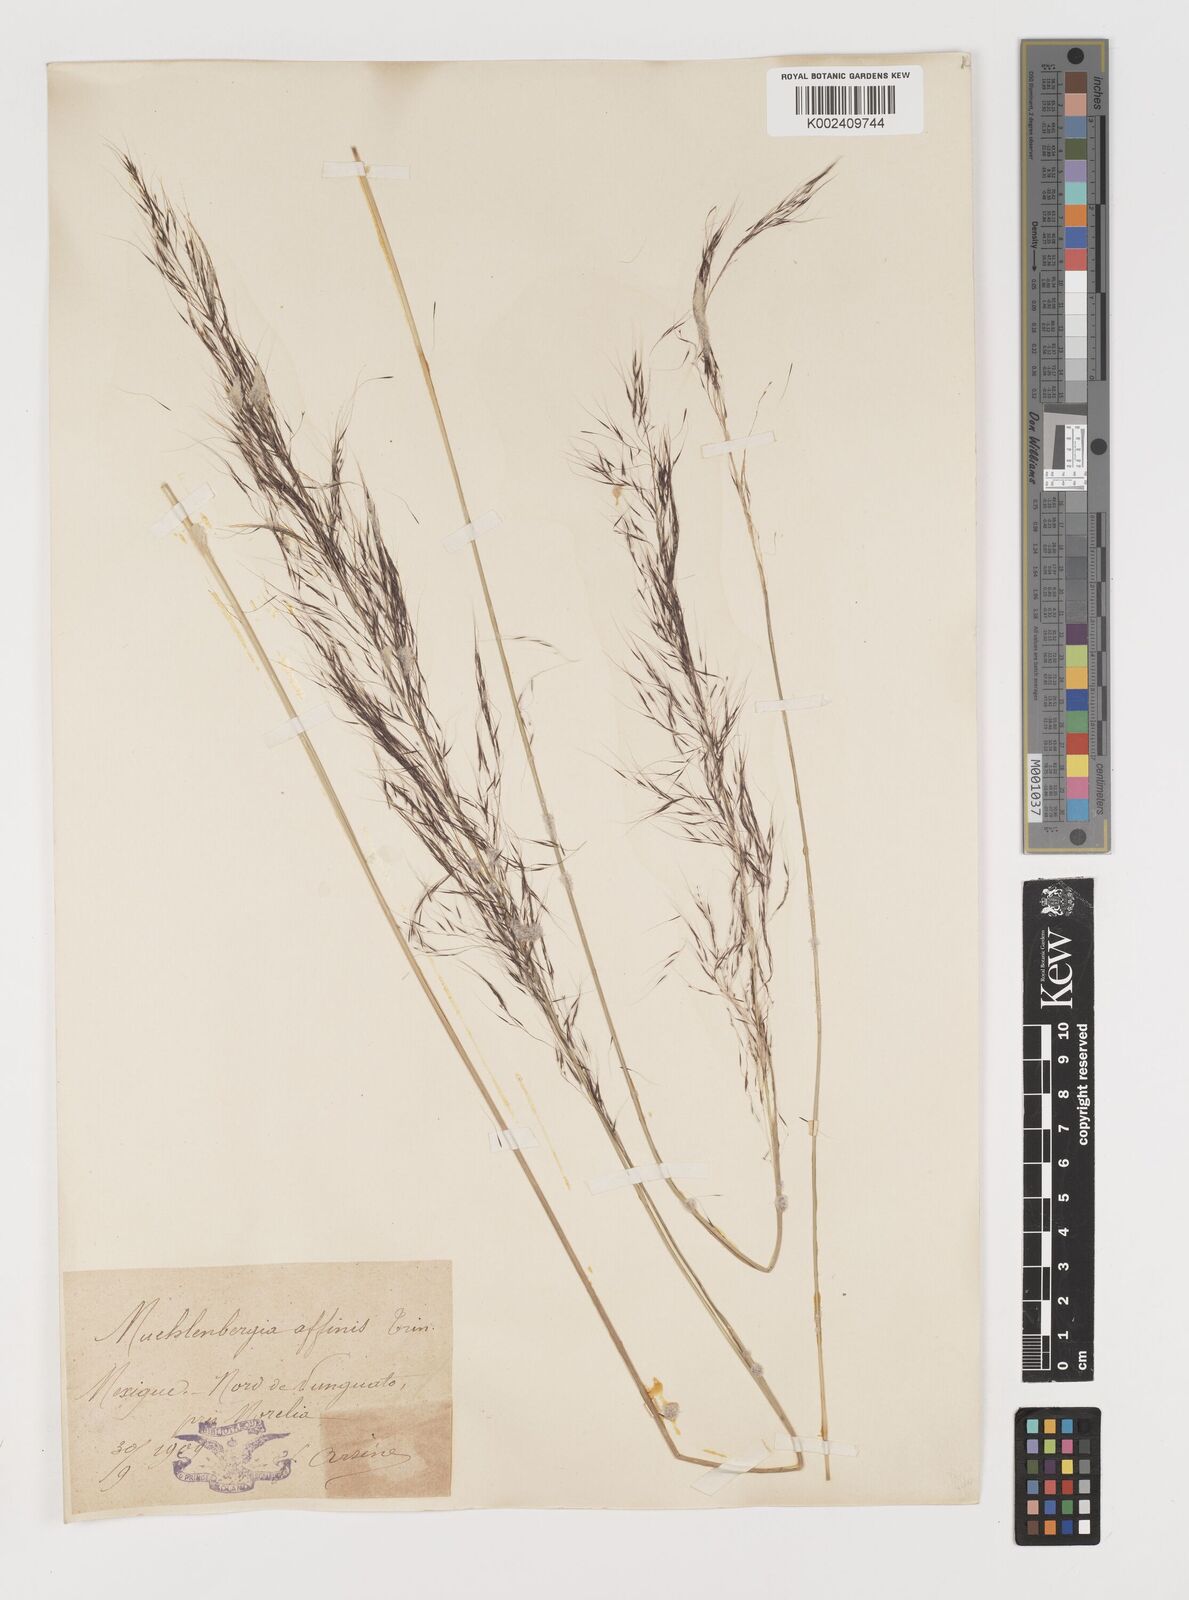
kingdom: Plantae
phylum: Tracheophyta
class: Liliopsida
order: Poales
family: Poaceae
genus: Muhlenbergia
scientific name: Muhlenbergia rigida
